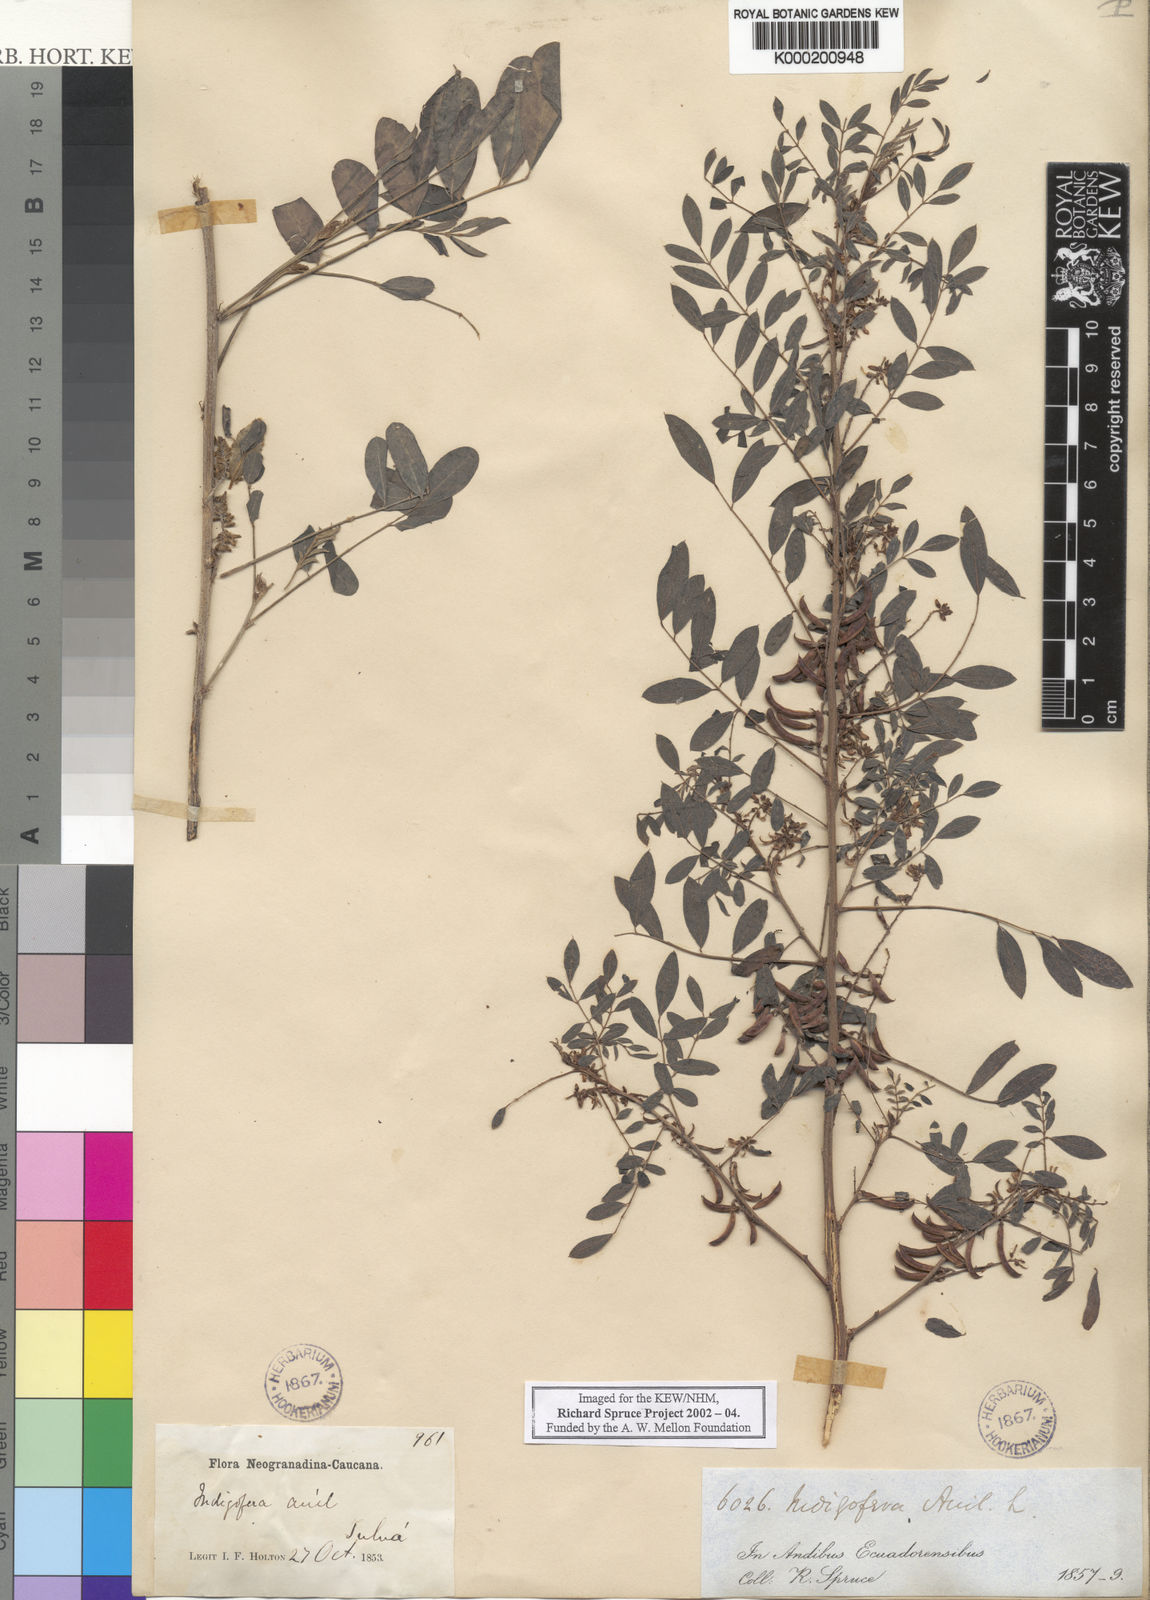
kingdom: Plantae
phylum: Tracheophyta
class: Magnoliopsida
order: Fabales
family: Fabaceae
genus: Indigofera
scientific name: Indigofera suffruticosa
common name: Anil de pasto
